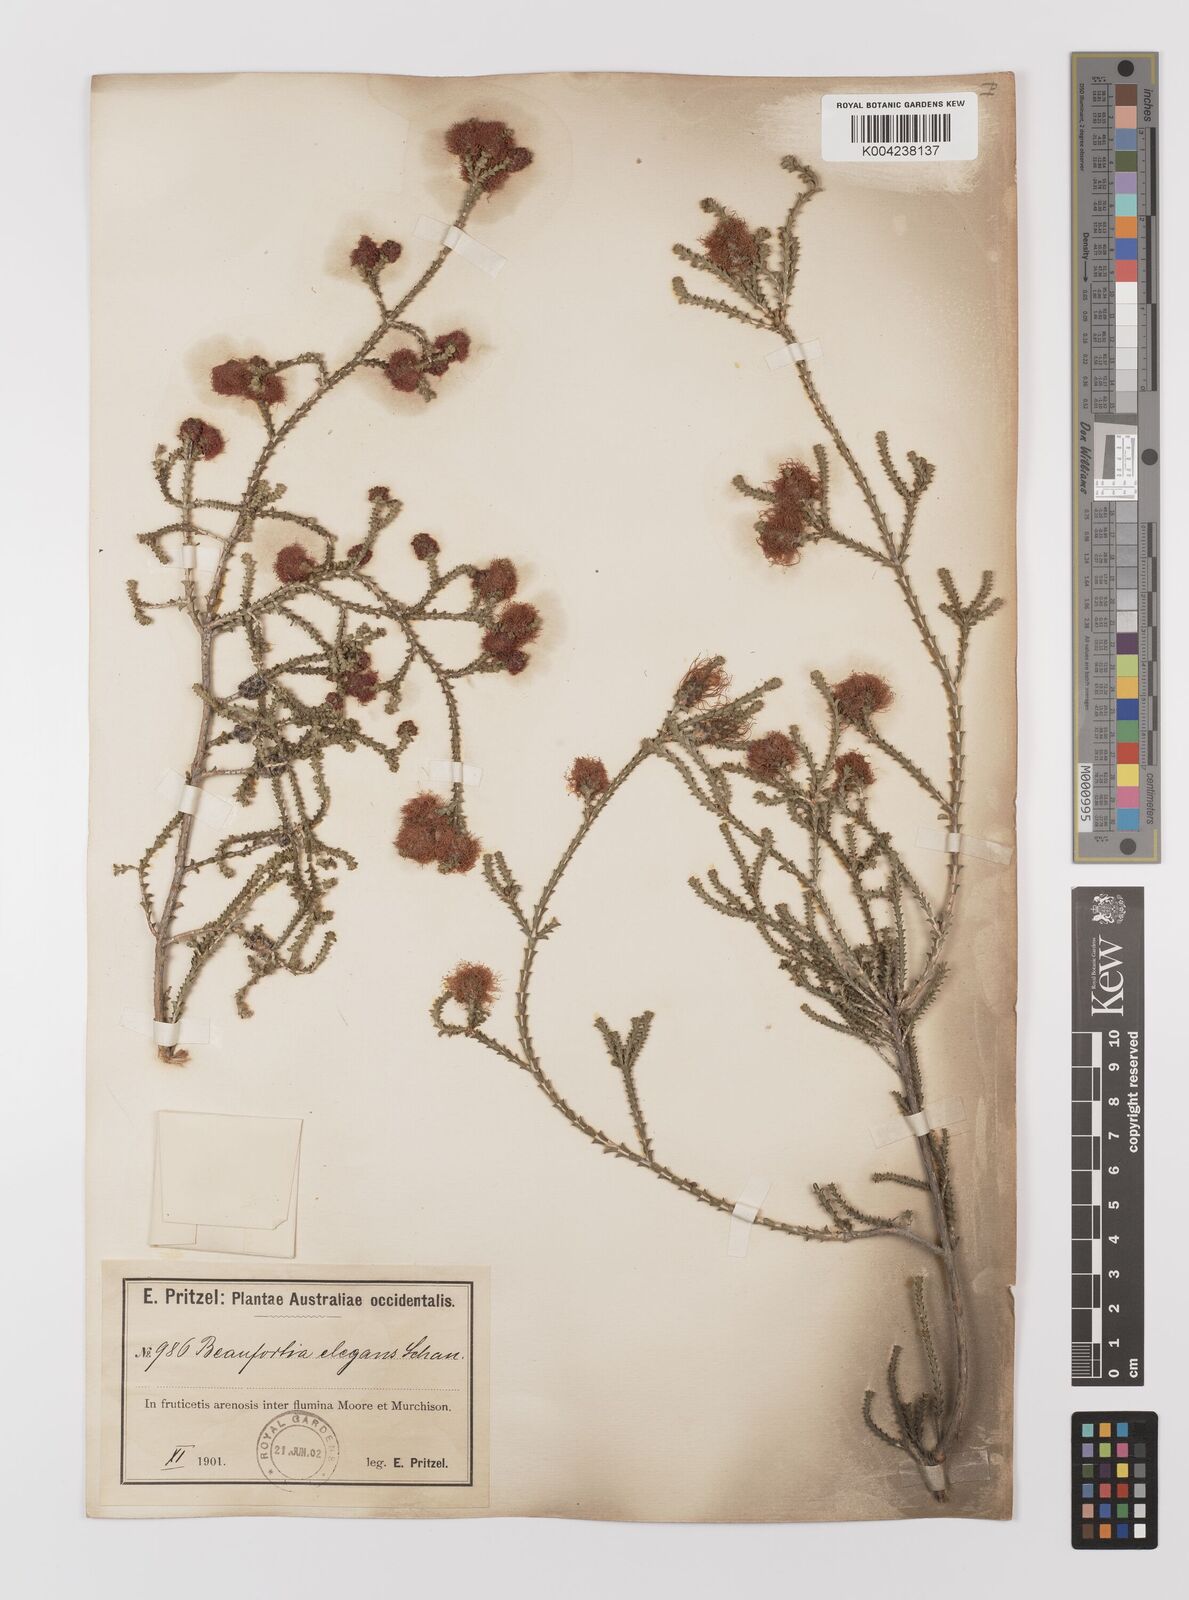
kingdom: Plantae
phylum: Tracheophyta
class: Magnoliopsida
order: Myrtales
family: Myrtaceae
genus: Melaleuca
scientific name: Melaleuca scitula
